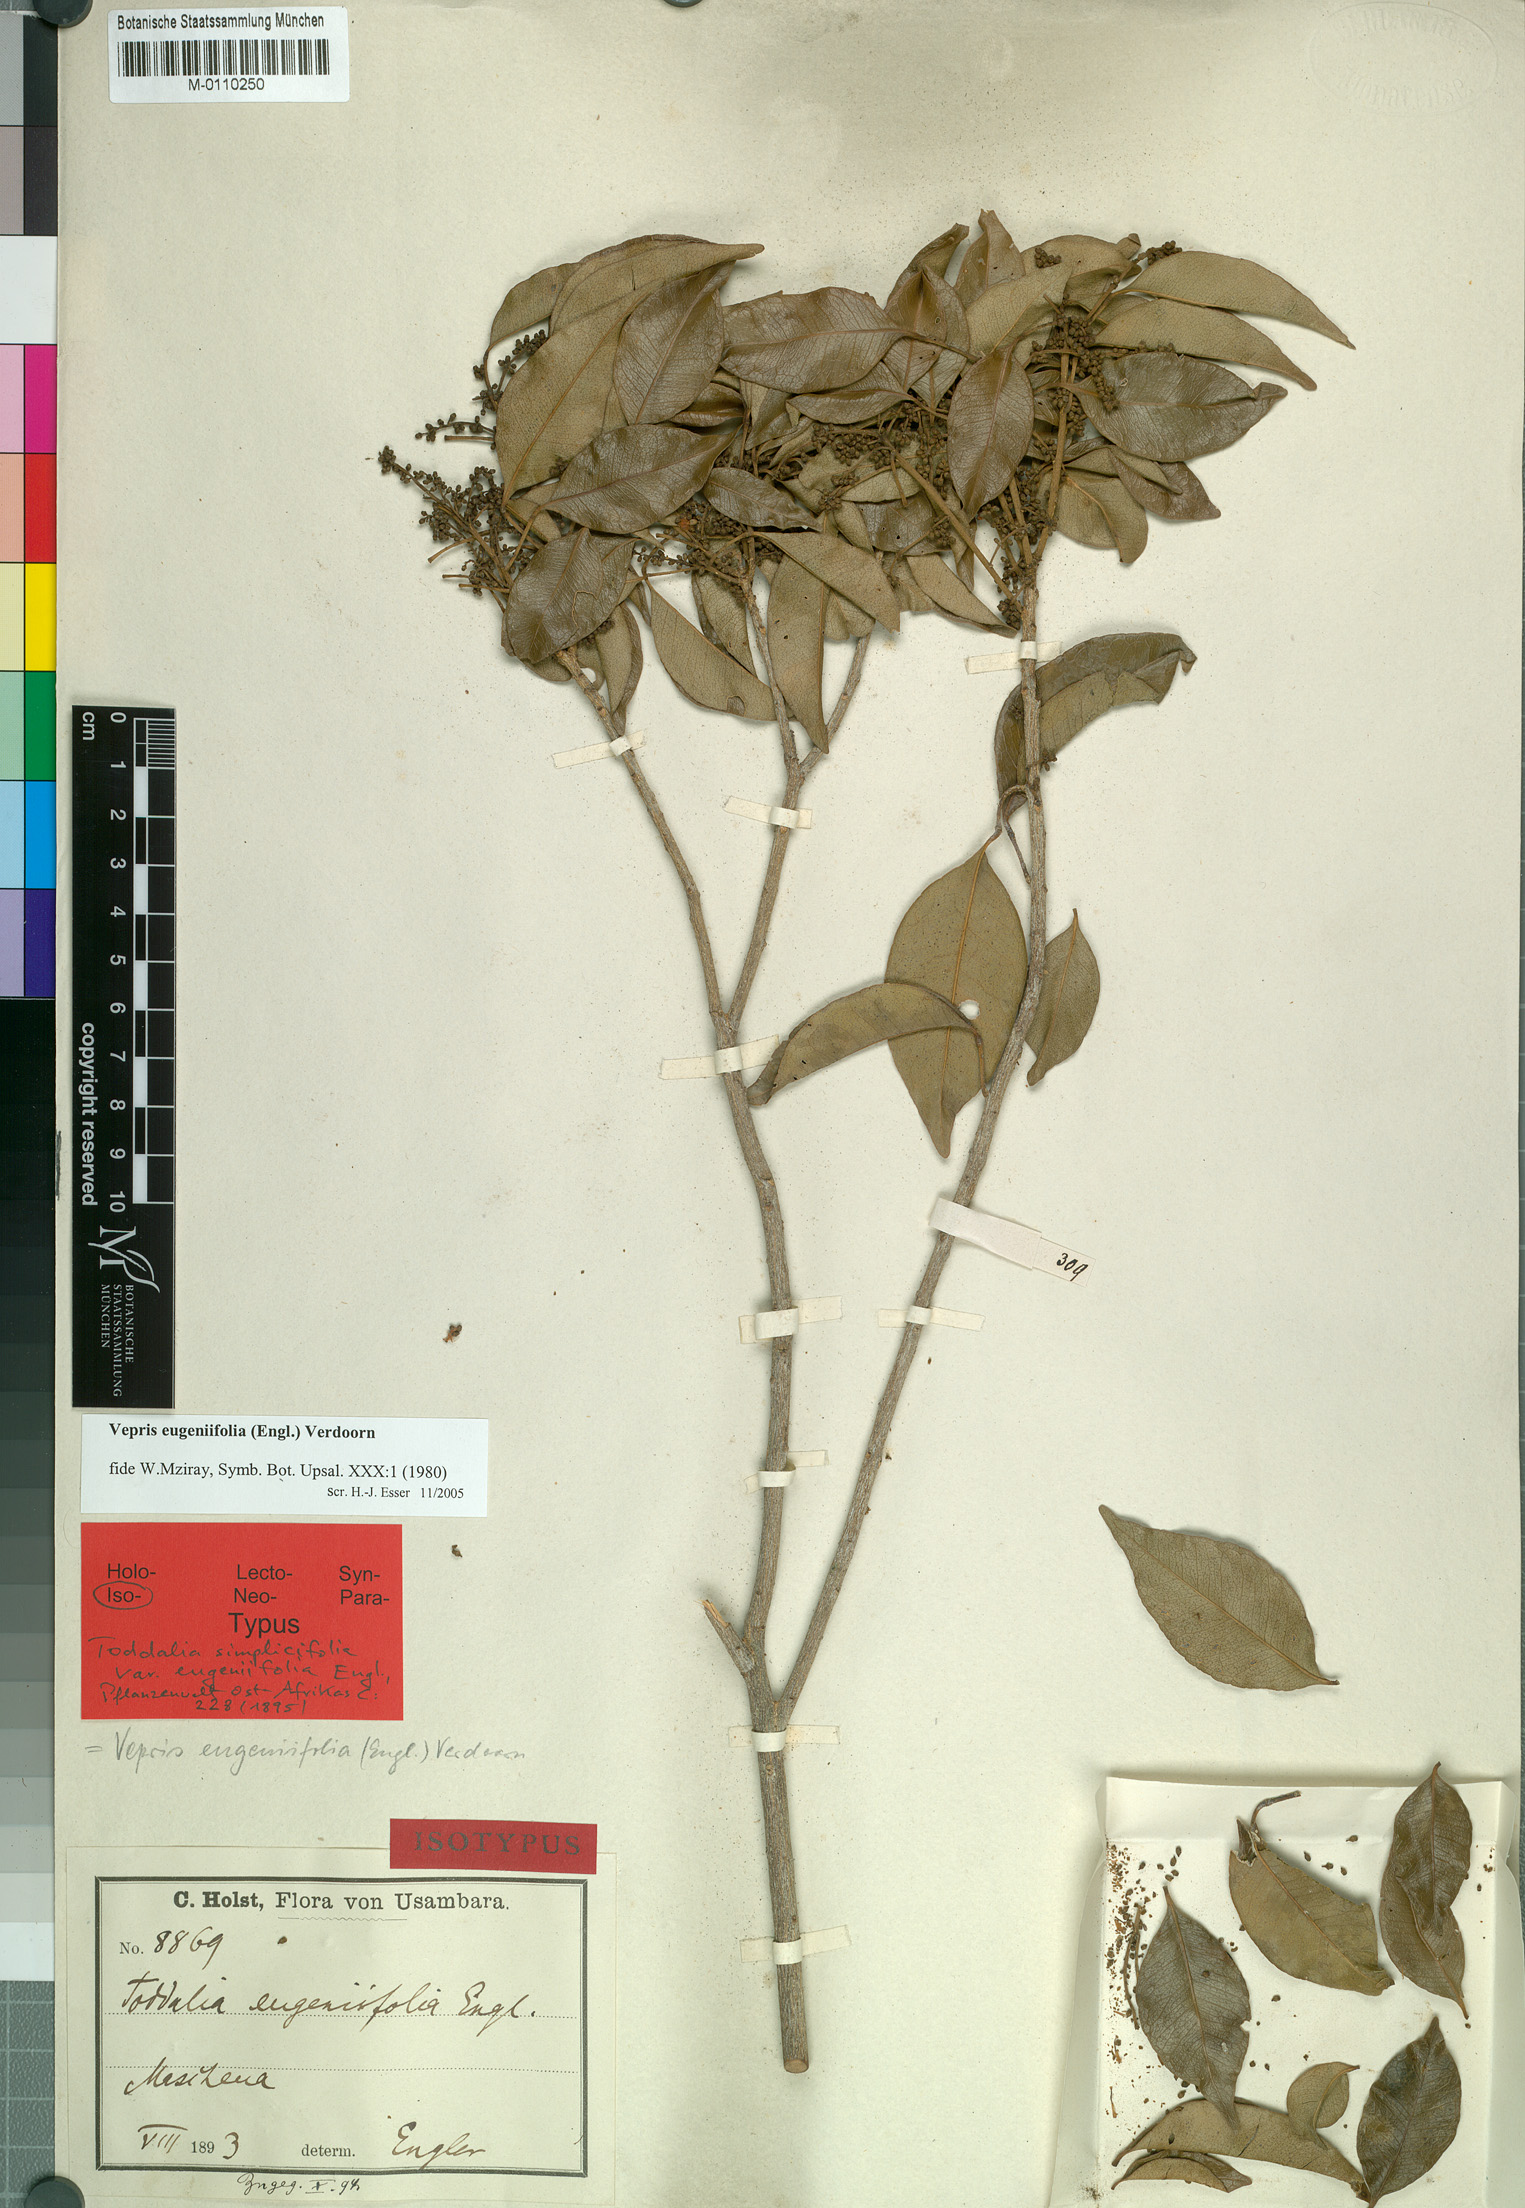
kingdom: Plantae
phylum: Tracheophyta
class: Magnoliopsida
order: Sapindales
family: Rutaceae
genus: Vepris
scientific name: Vepris eugeniifolia
